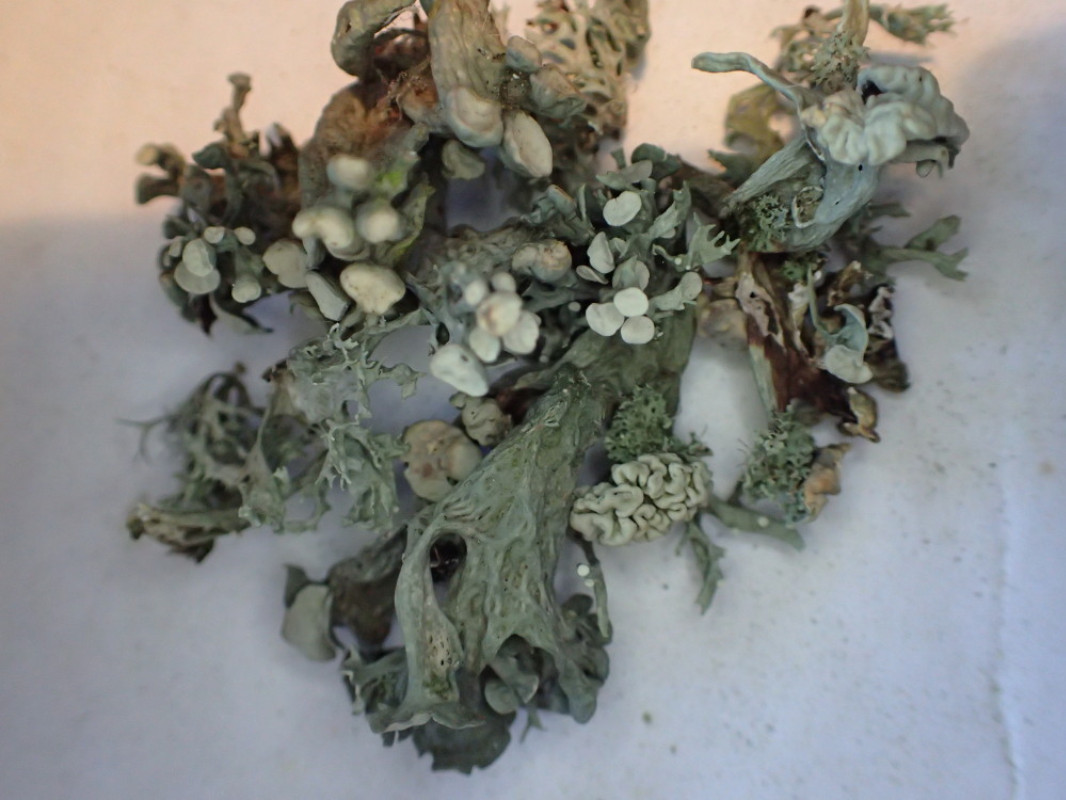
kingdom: Fungi
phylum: Ascomycota
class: Lecanoromycetes
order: Lecanorales
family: Ramalinaceae
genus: Ramalina
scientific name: Ramalina fastigiata
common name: tue-grenlav
